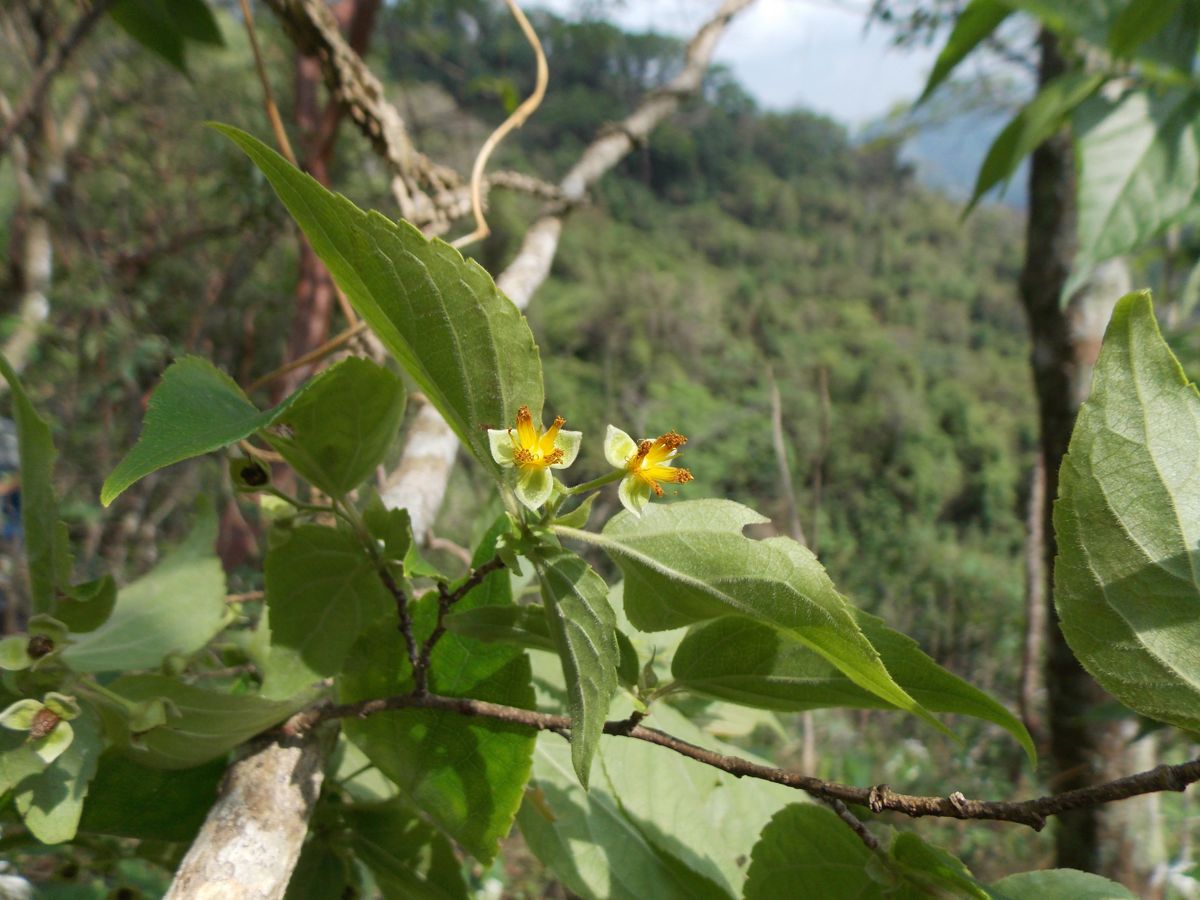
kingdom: Plantae
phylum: Tracheophyta
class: Magnoliopsida
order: Malpighiales
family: Salicaceae
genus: Prockia
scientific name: Prockia crucis
